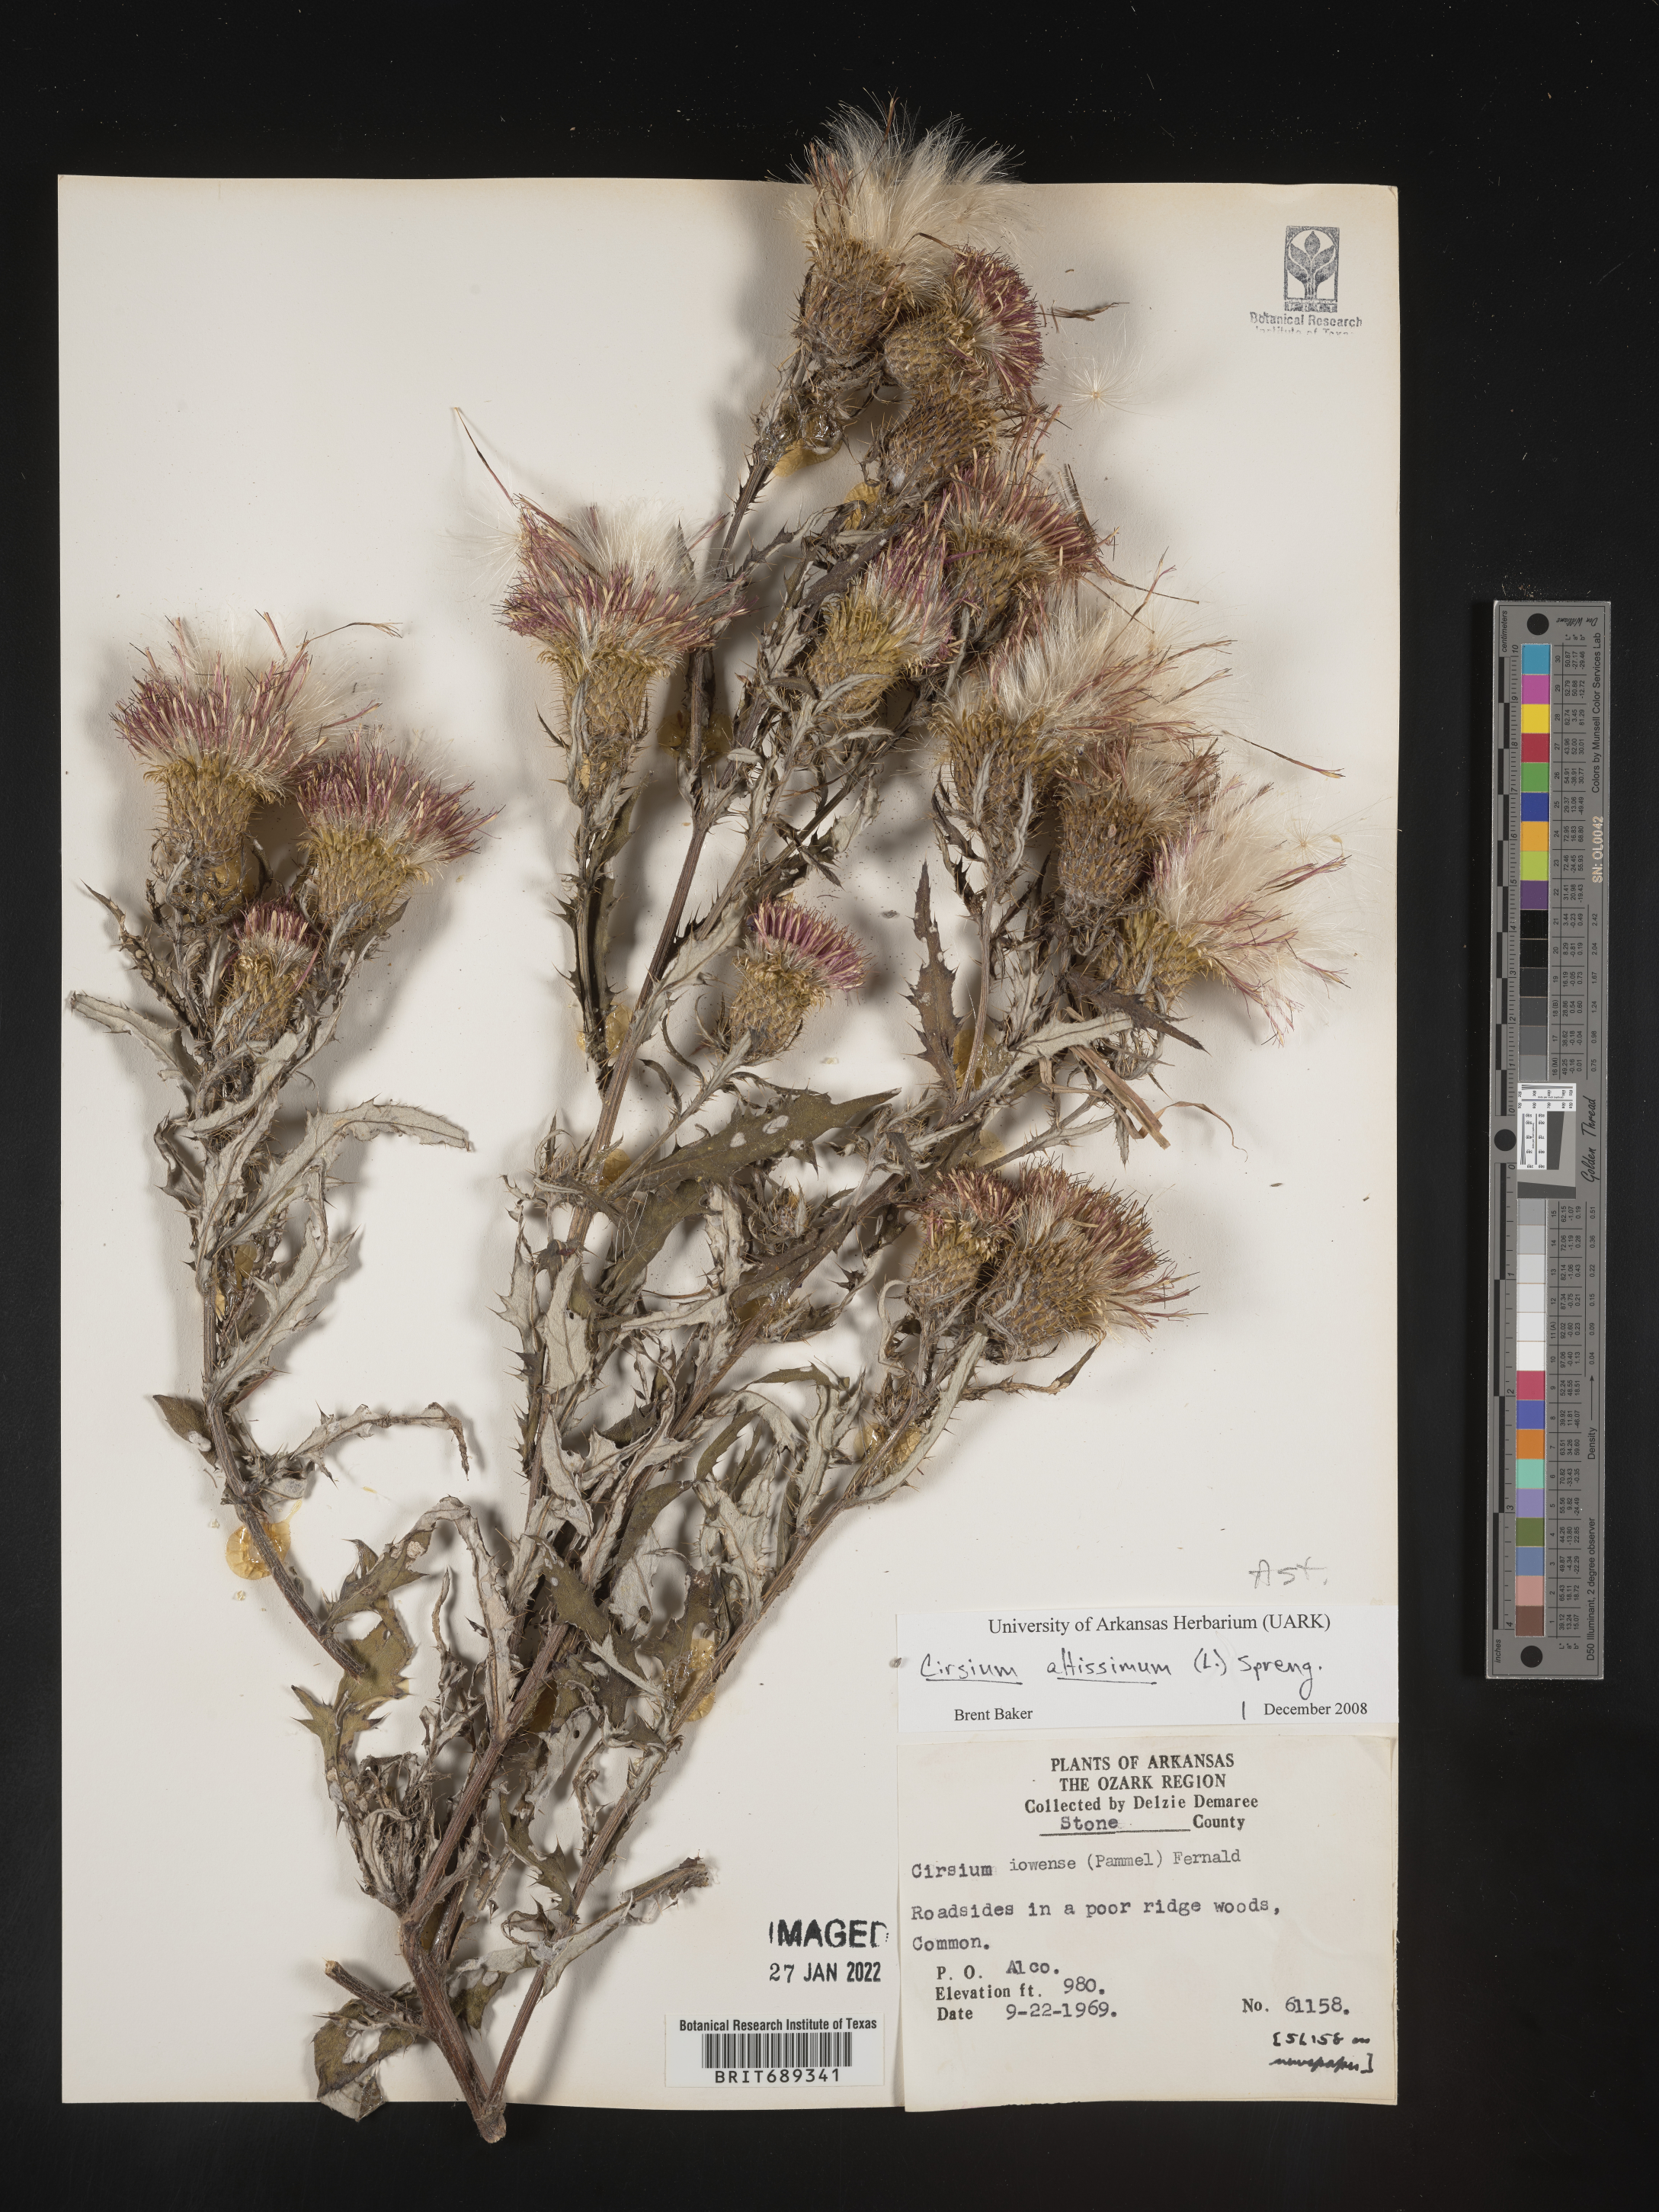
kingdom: Plantae
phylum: Tracheophyta
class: Magnoliopsida
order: Asterales
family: Asteraceae
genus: Cirsium
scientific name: Cirsium altissimum
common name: Roadside thistle
